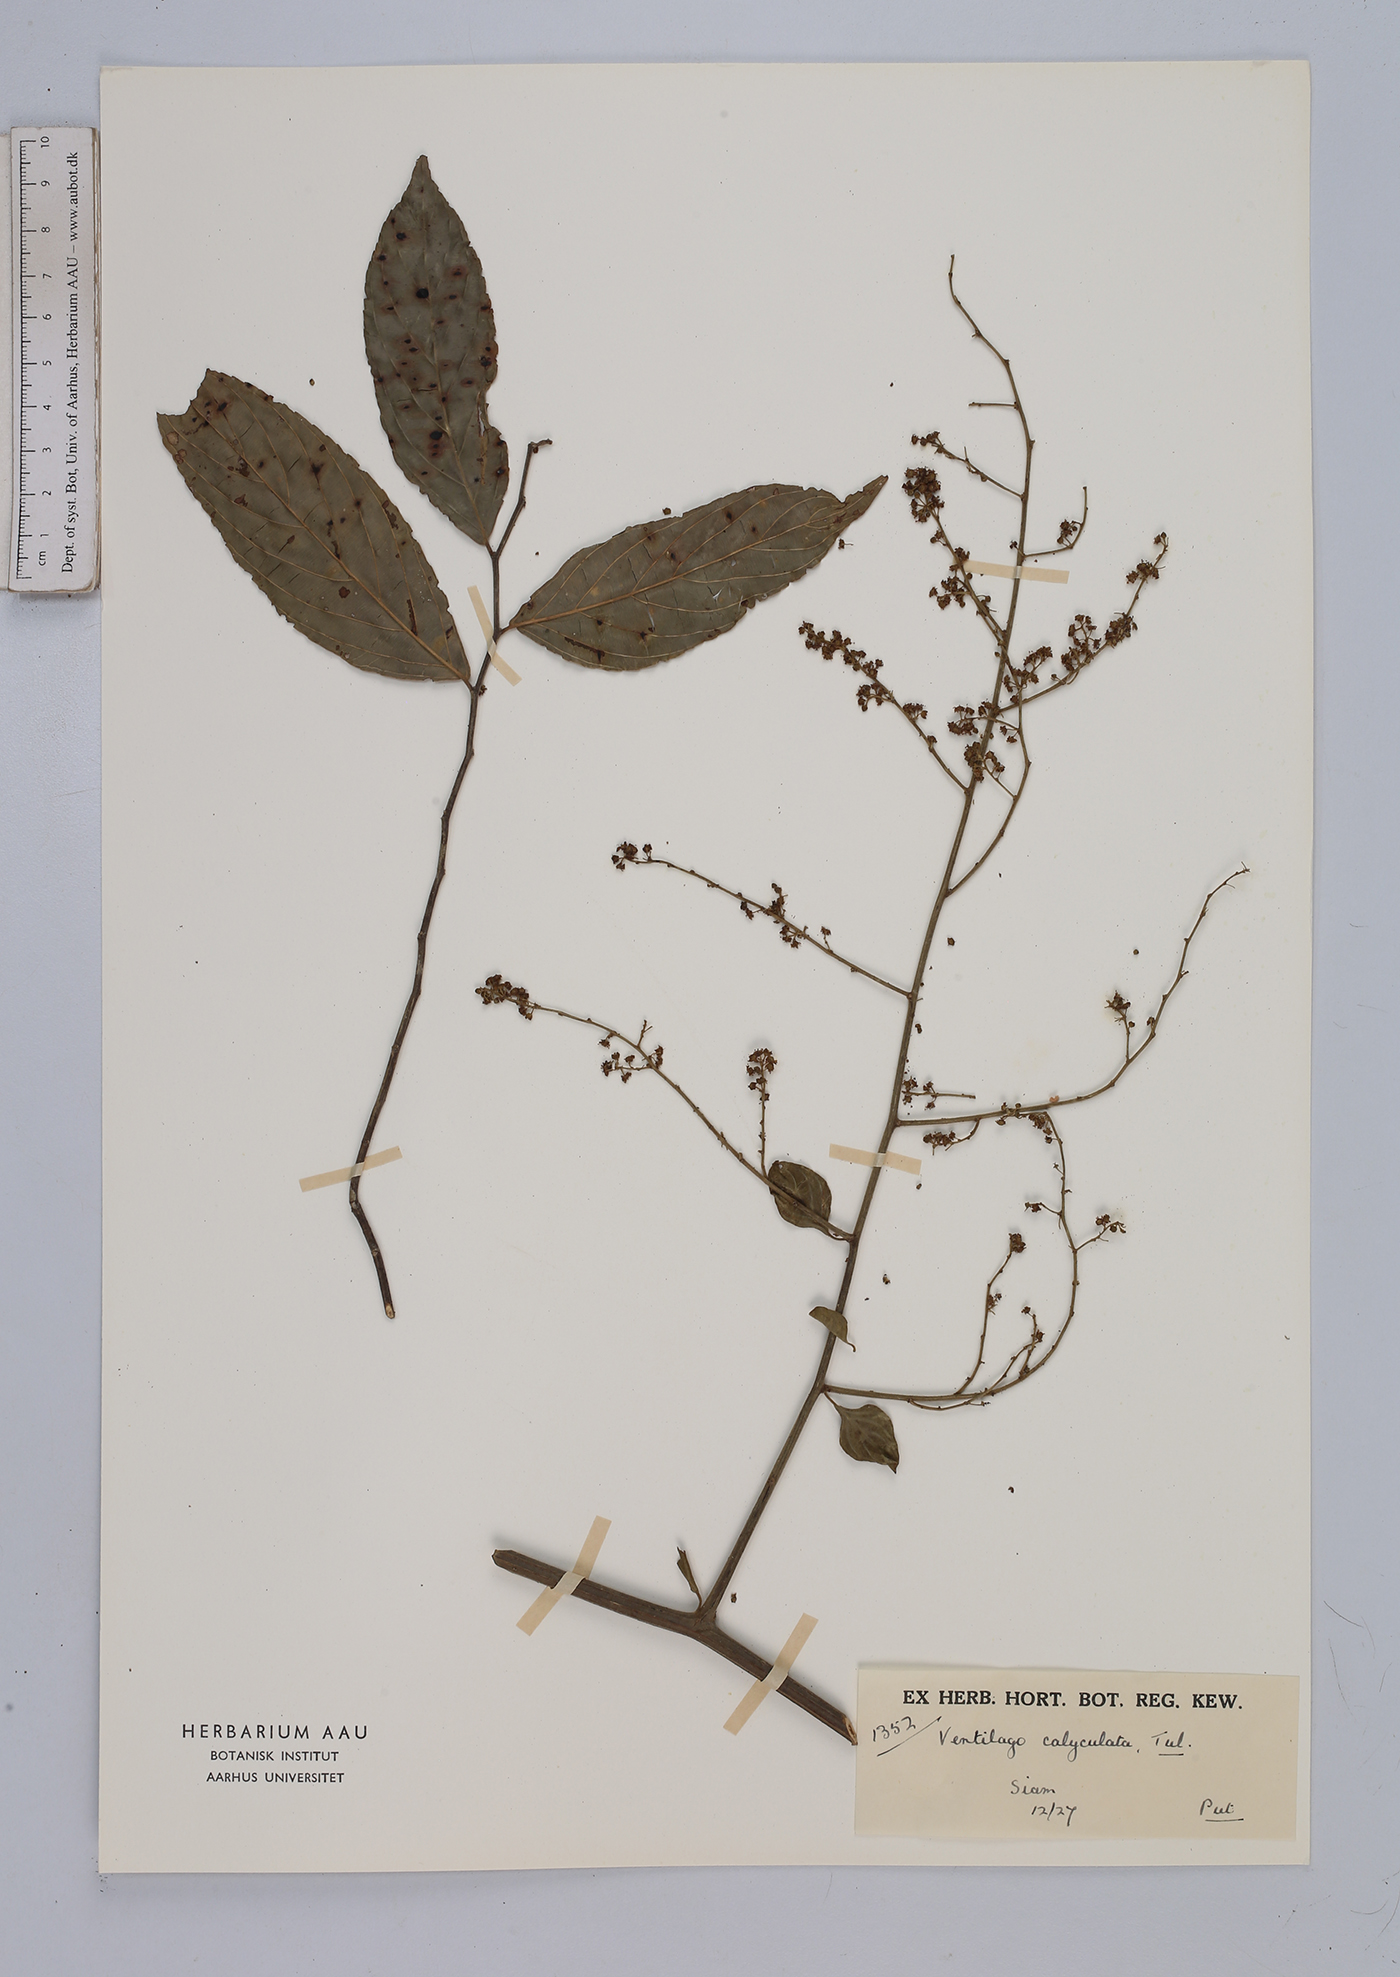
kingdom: Plantae
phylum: Tracheophyta
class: Magnoliopsida
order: Rosales
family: Rhamnaceae
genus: Ventilago
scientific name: Ventilago denticulata
